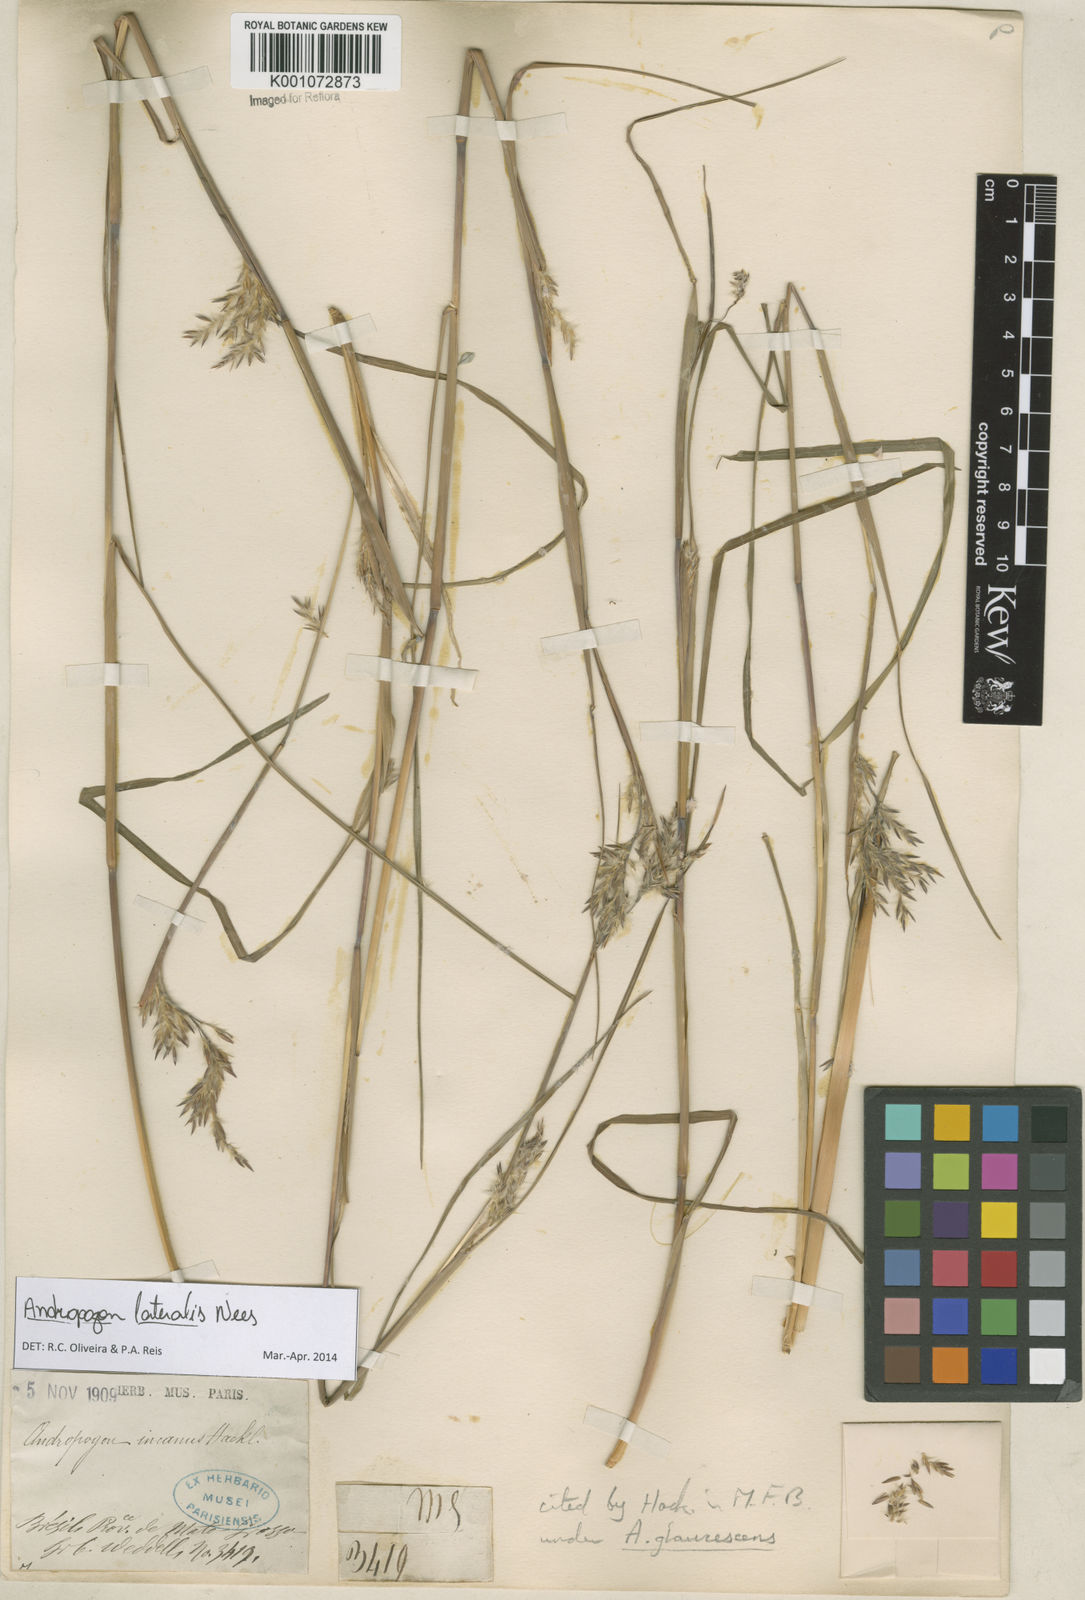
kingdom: Plantae
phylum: Tracheophyta
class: Liliopsida
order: Poales
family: Poaceae
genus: Andropogon
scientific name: Andropogon lateralis
